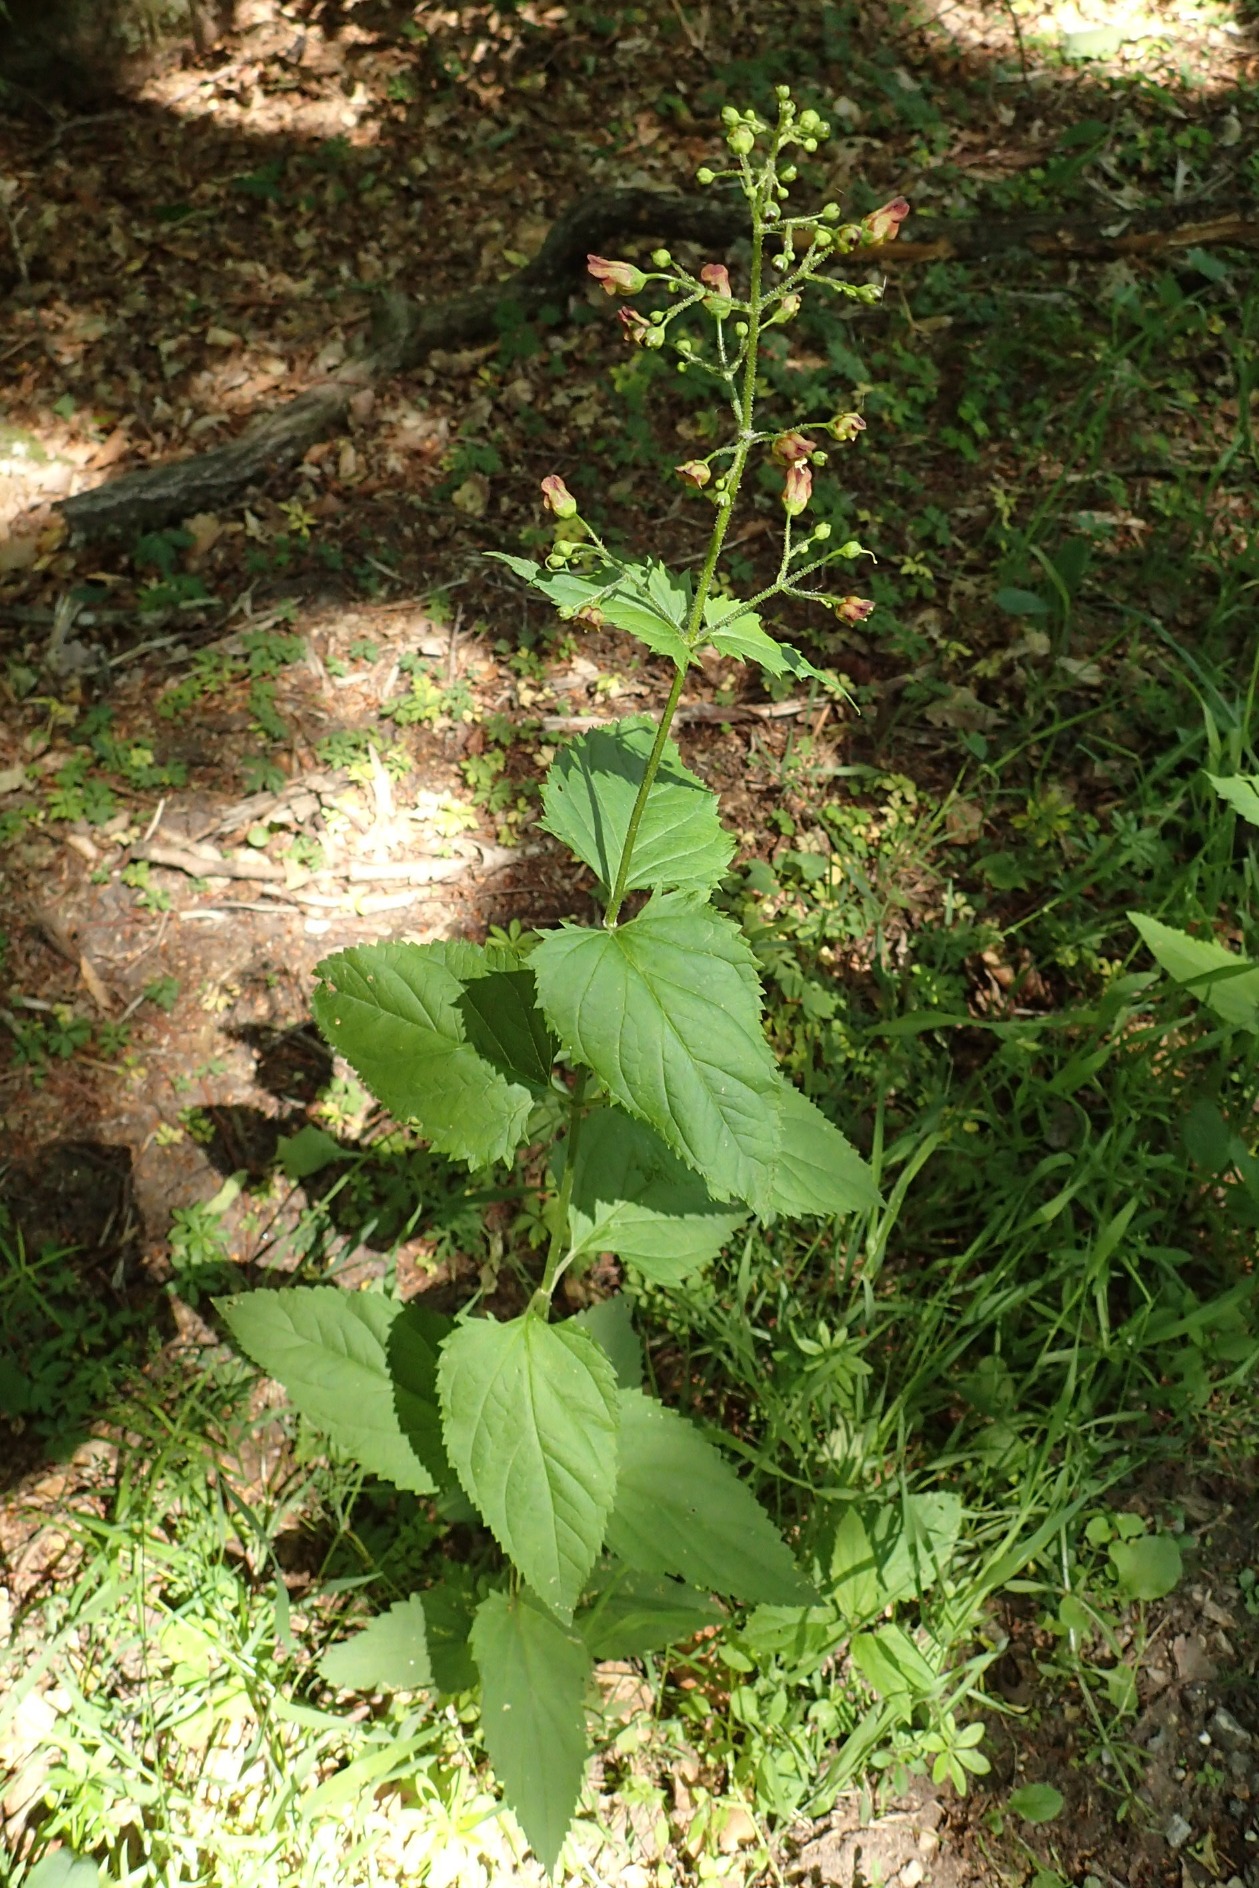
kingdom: Plantae
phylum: Tracheophyta
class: Magnoliopsida
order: Lamiales
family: Scrophulariaceae
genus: Scrophularia
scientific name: Scrophularia nodosa
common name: Knoldet brunrod
